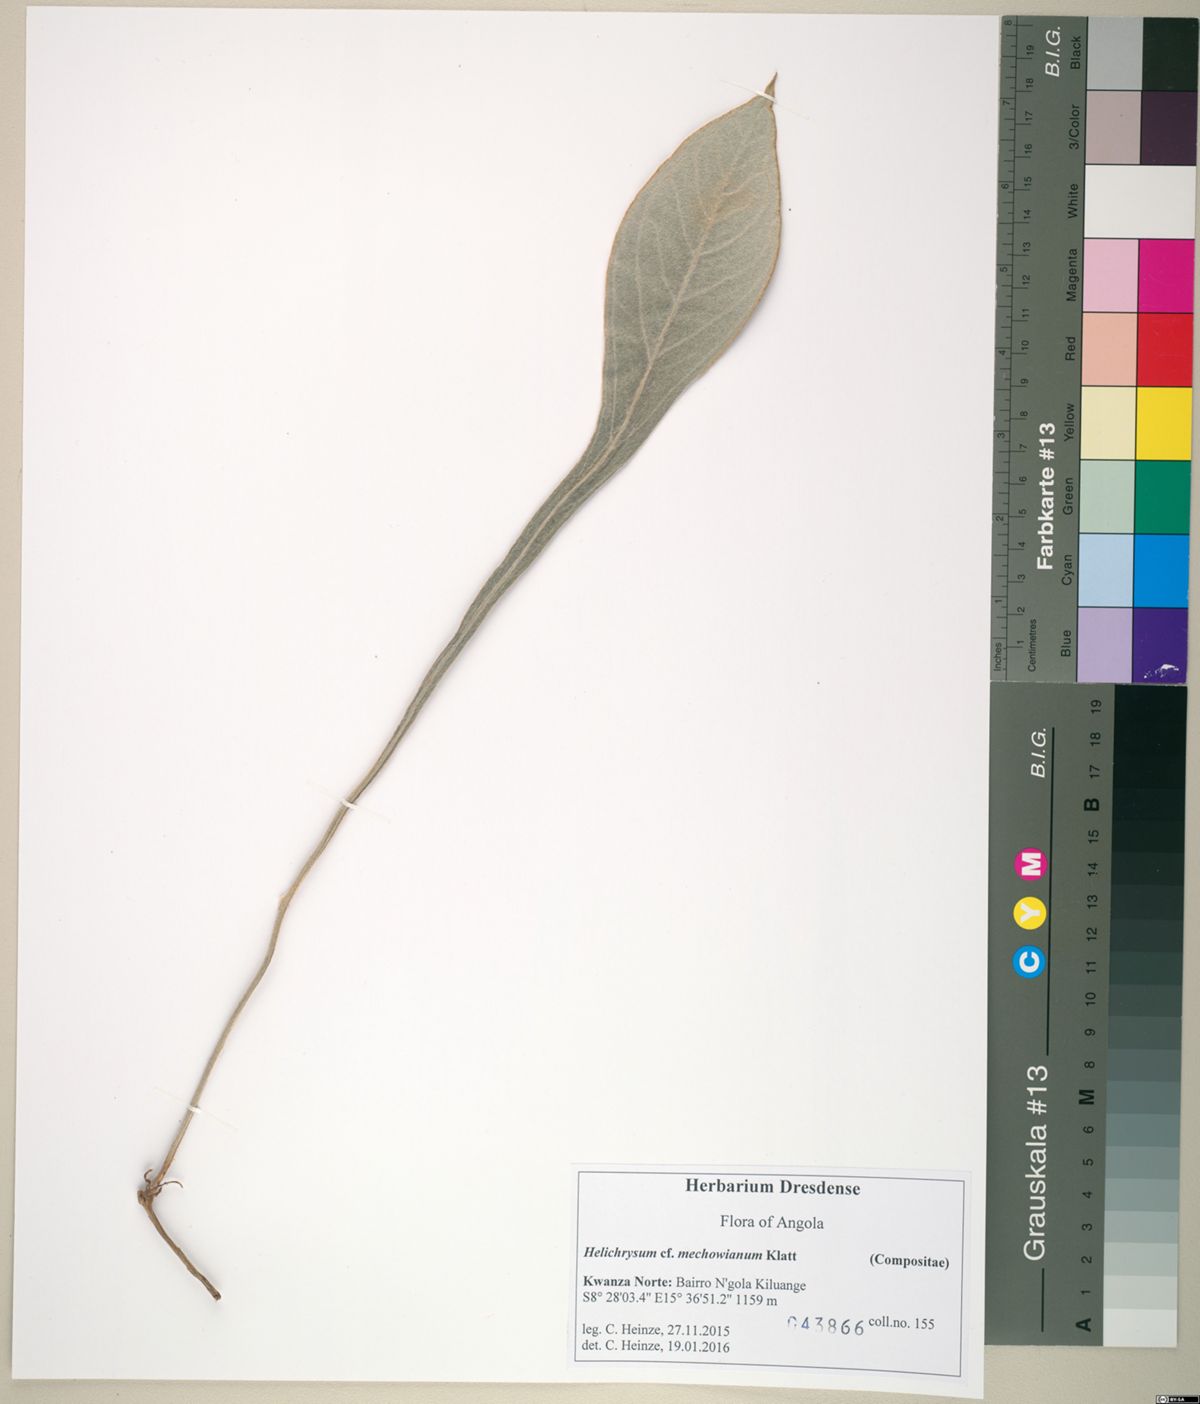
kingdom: Plantae
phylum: Tracheophyta
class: Magnoliopsida
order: Asterales
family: Asteraceae
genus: Helichrysum
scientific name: Helichrysum mechowianum
